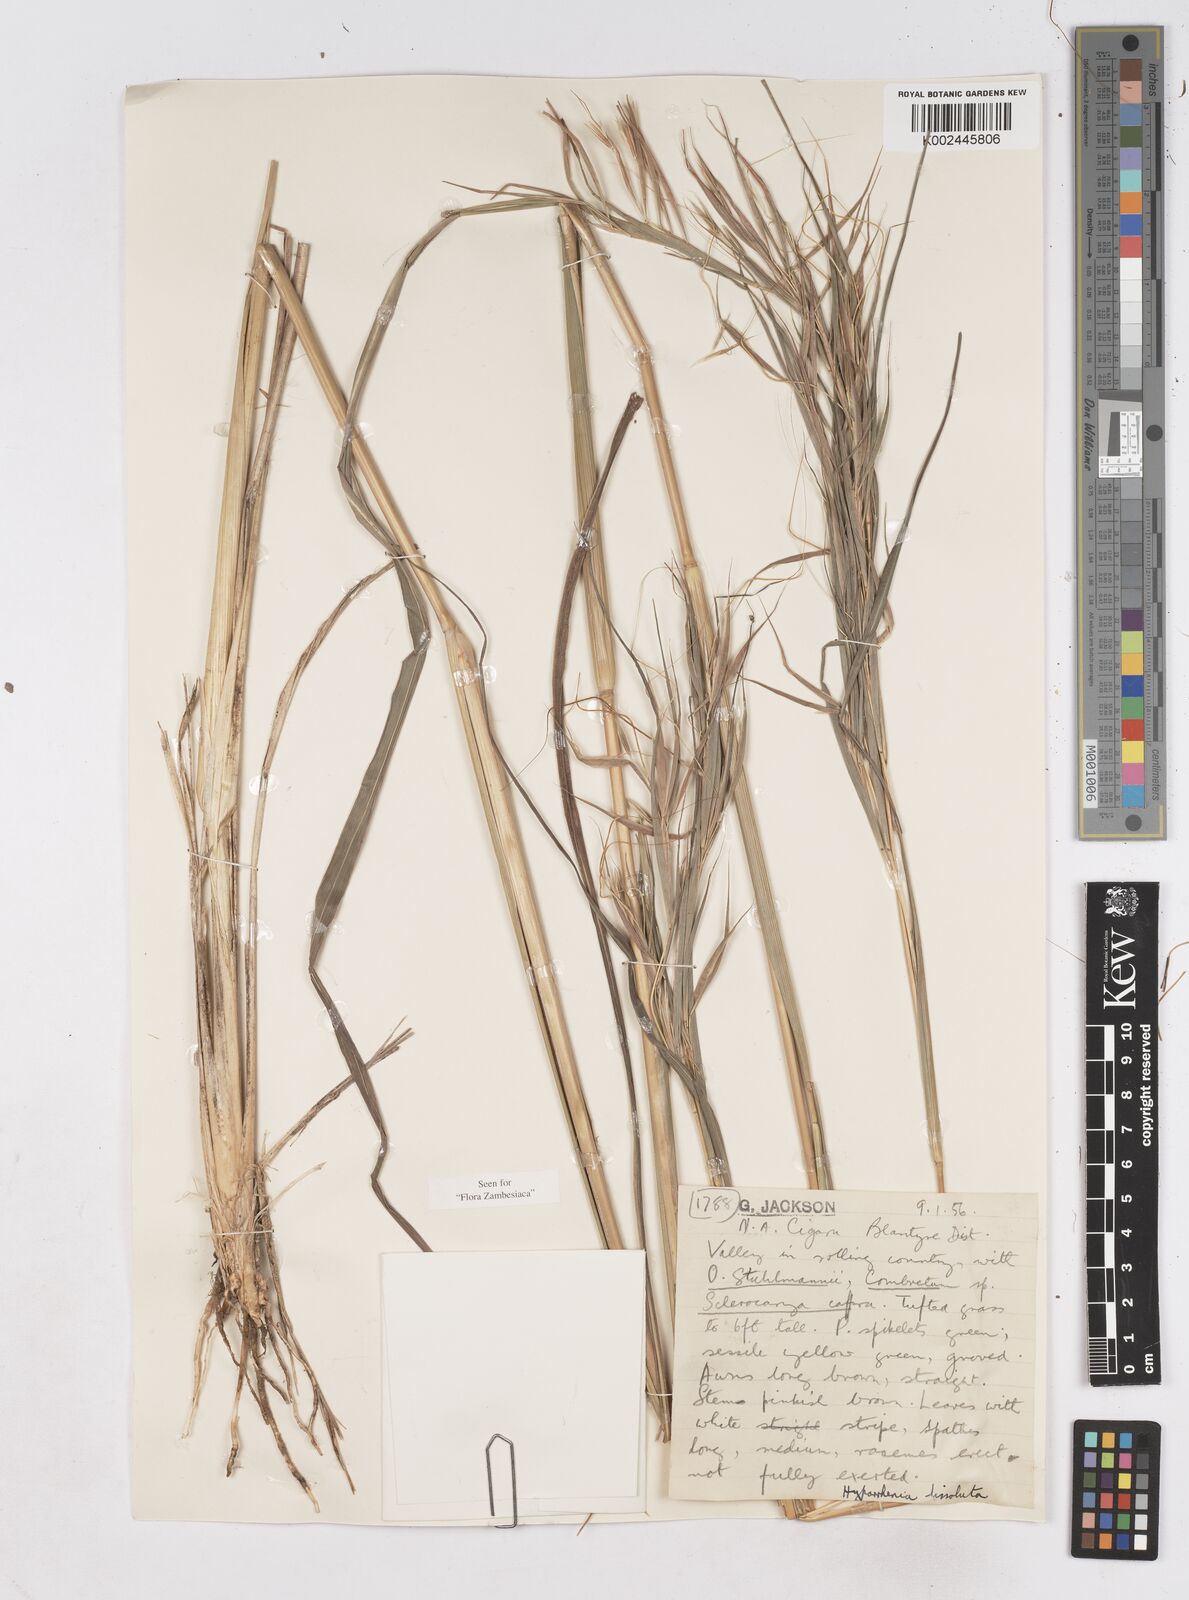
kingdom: Plantae
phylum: Tracheophyta
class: Liliopsida
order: Poales
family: Poaceae
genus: Hyperthelia
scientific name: Hyperthelia dissoluta
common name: Yellow thatching grass
